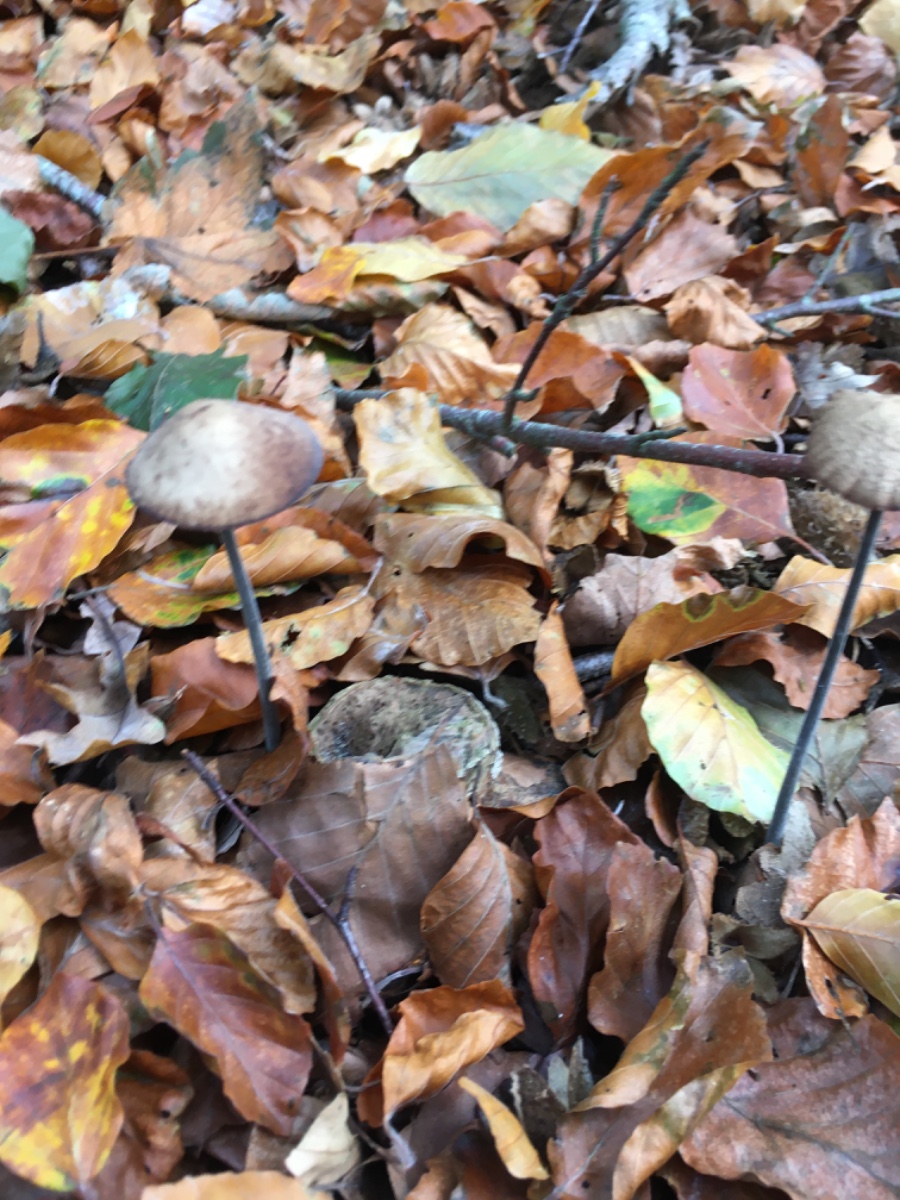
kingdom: Fungi
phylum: Basidiomycota
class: Agaricomycetes
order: Agaricales
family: Omphalotaceae
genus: Mycetinis
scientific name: Mycetinis alliaceus
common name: stor løghat
